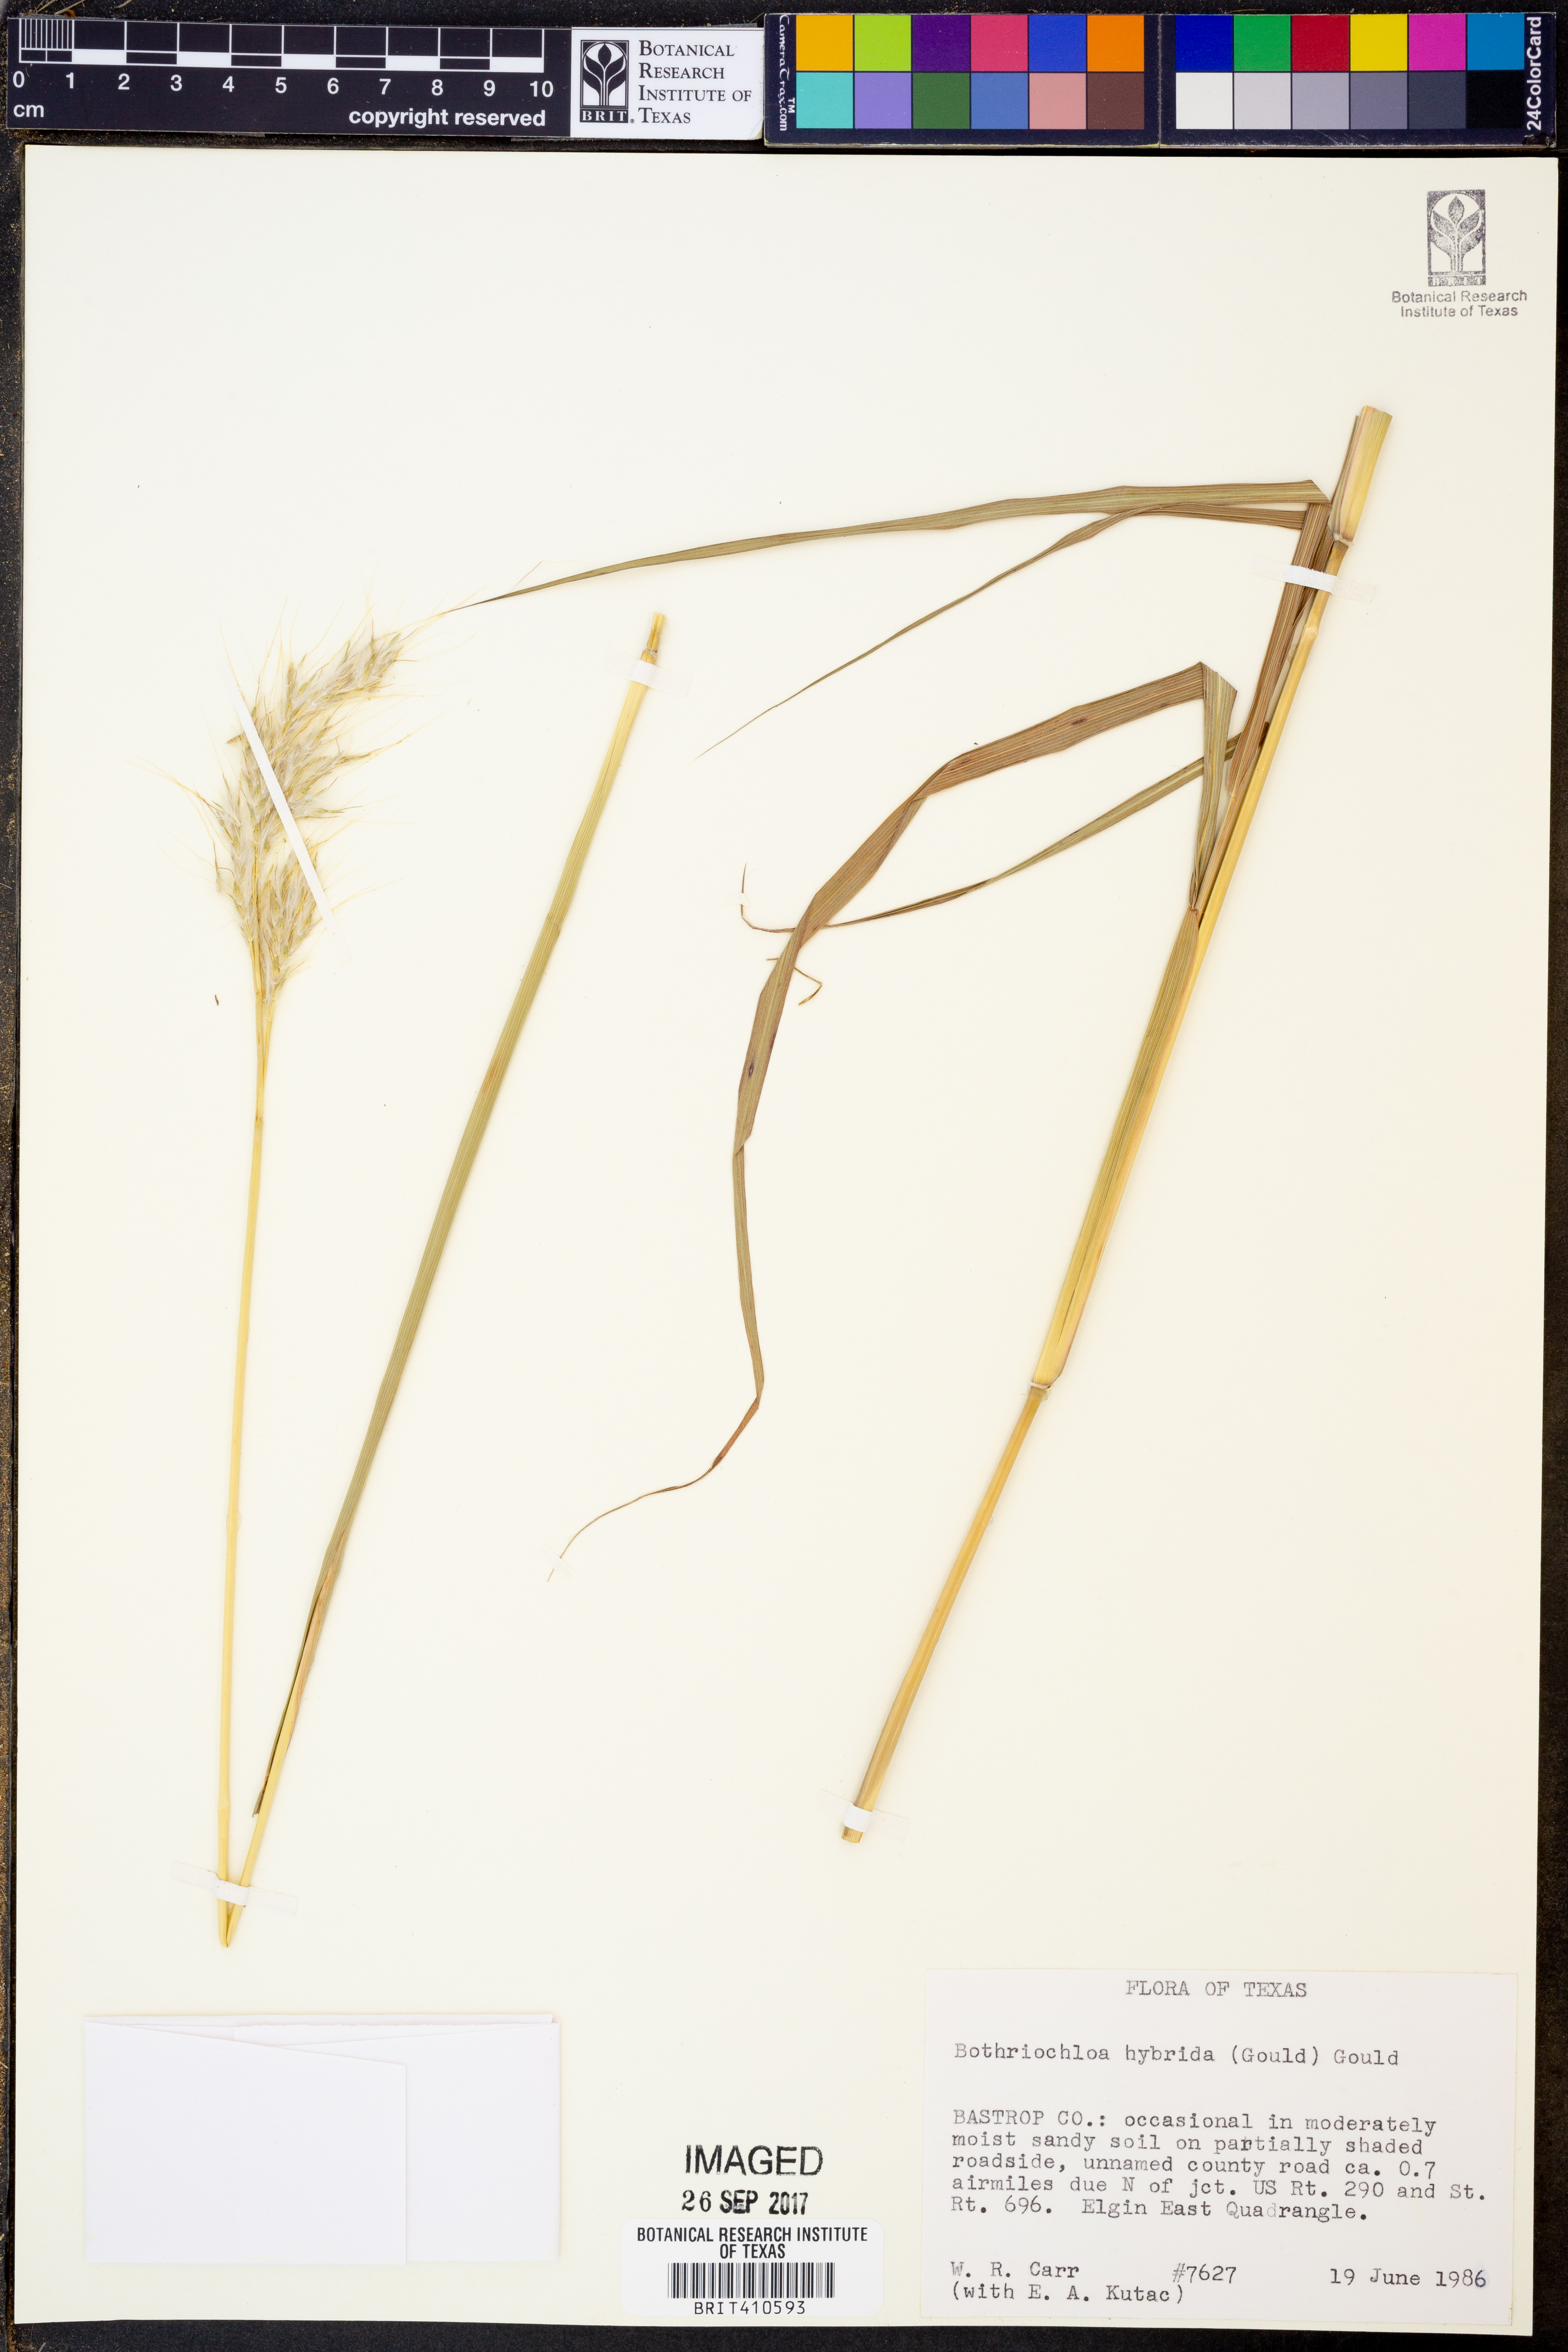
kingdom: Plantae
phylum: Tracheophyta
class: Liliopsida
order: Poales
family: Poaceae
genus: Bothriochloa
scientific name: Bothriochloa hybrida
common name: Hybrid bluestem
